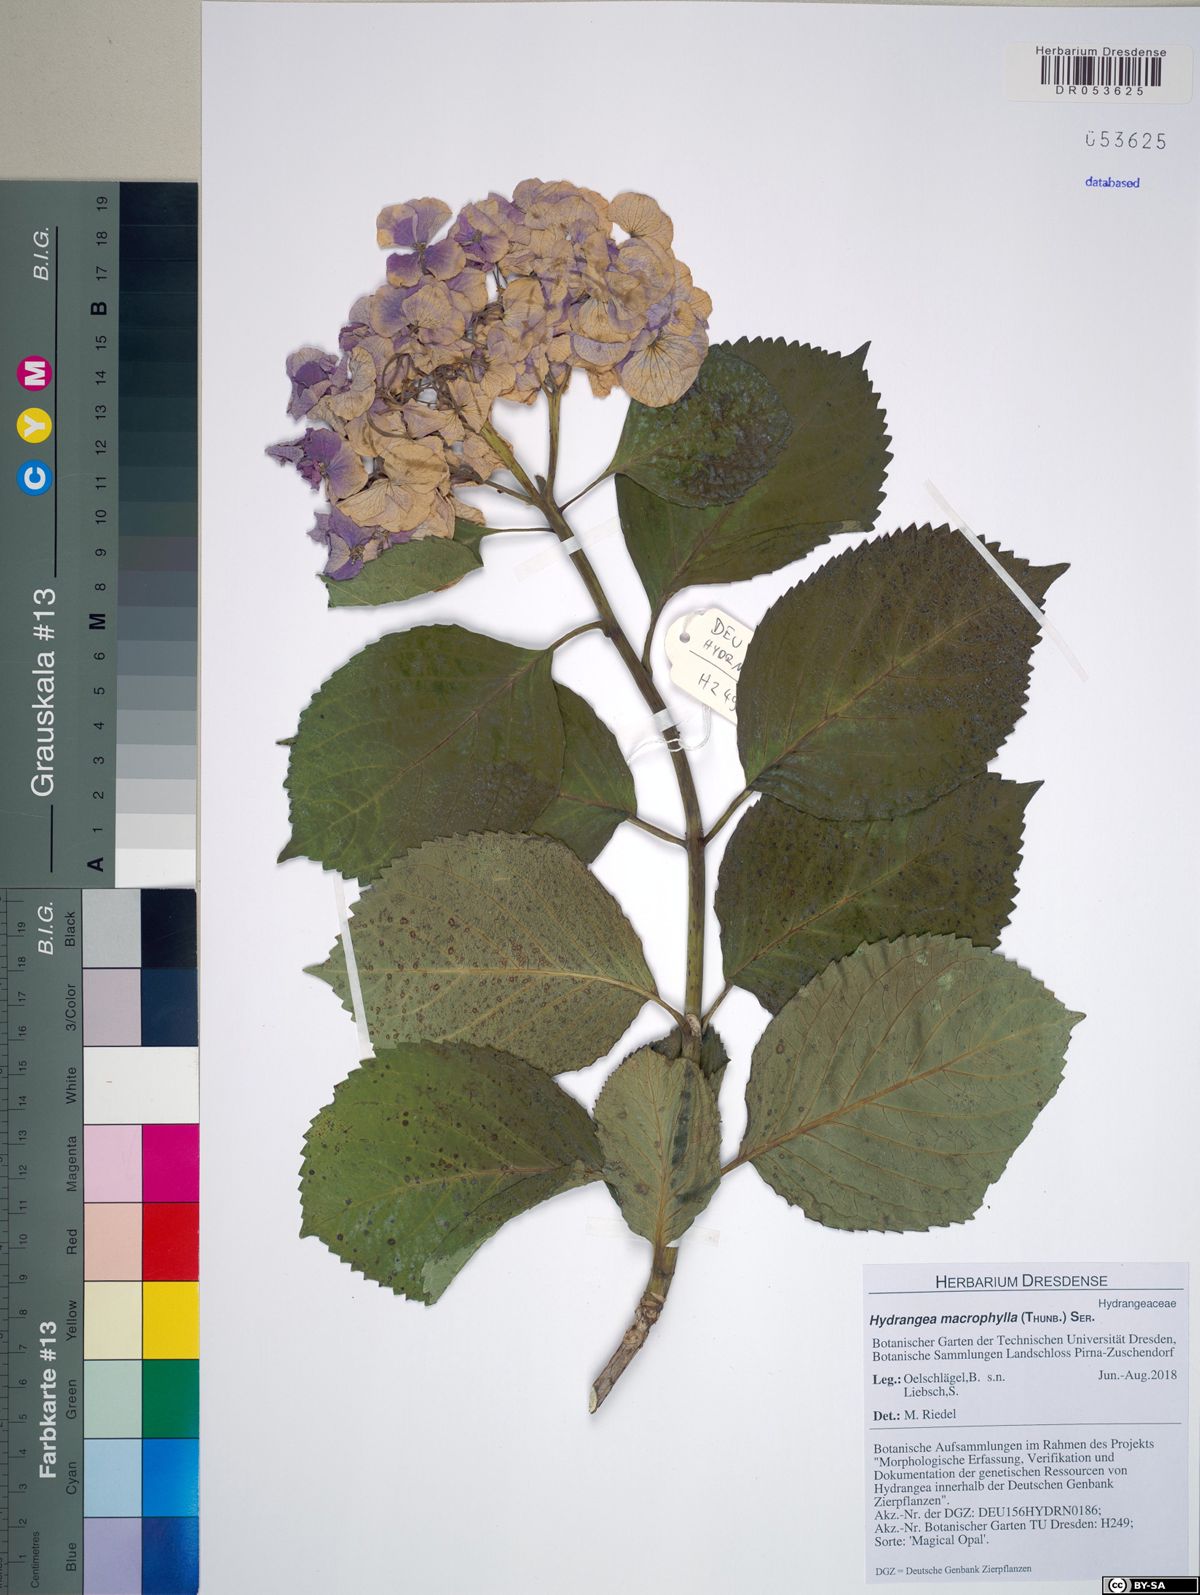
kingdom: Plantae
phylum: Tracheophyta
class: Magnoliopsida
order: Cornales
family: Hydrangeaceae
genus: Hydrangea
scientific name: Hydrangea macrophylla
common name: Hydrangea
